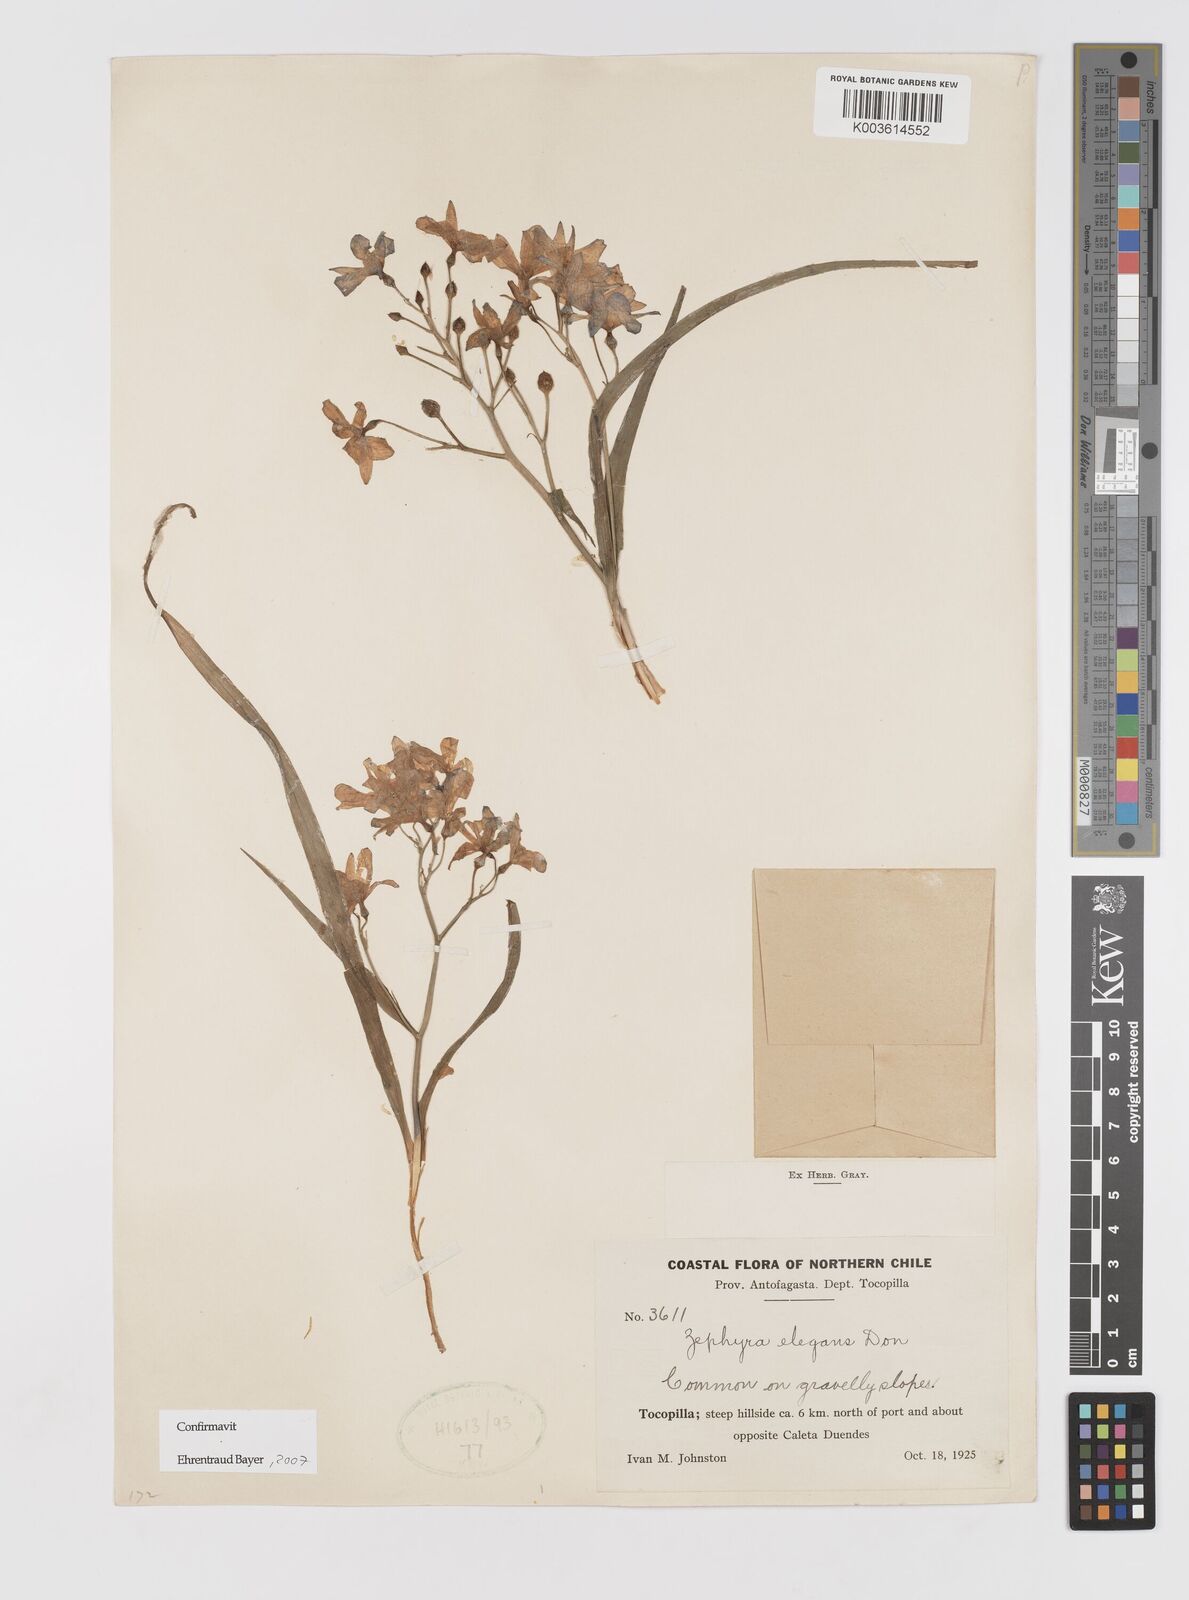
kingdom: Plantae
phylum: Tracheophyta
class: Liliopsida
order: Asparagales
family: Tecophilaeaceae
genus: Zephyra
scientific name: Zephyra elegans
